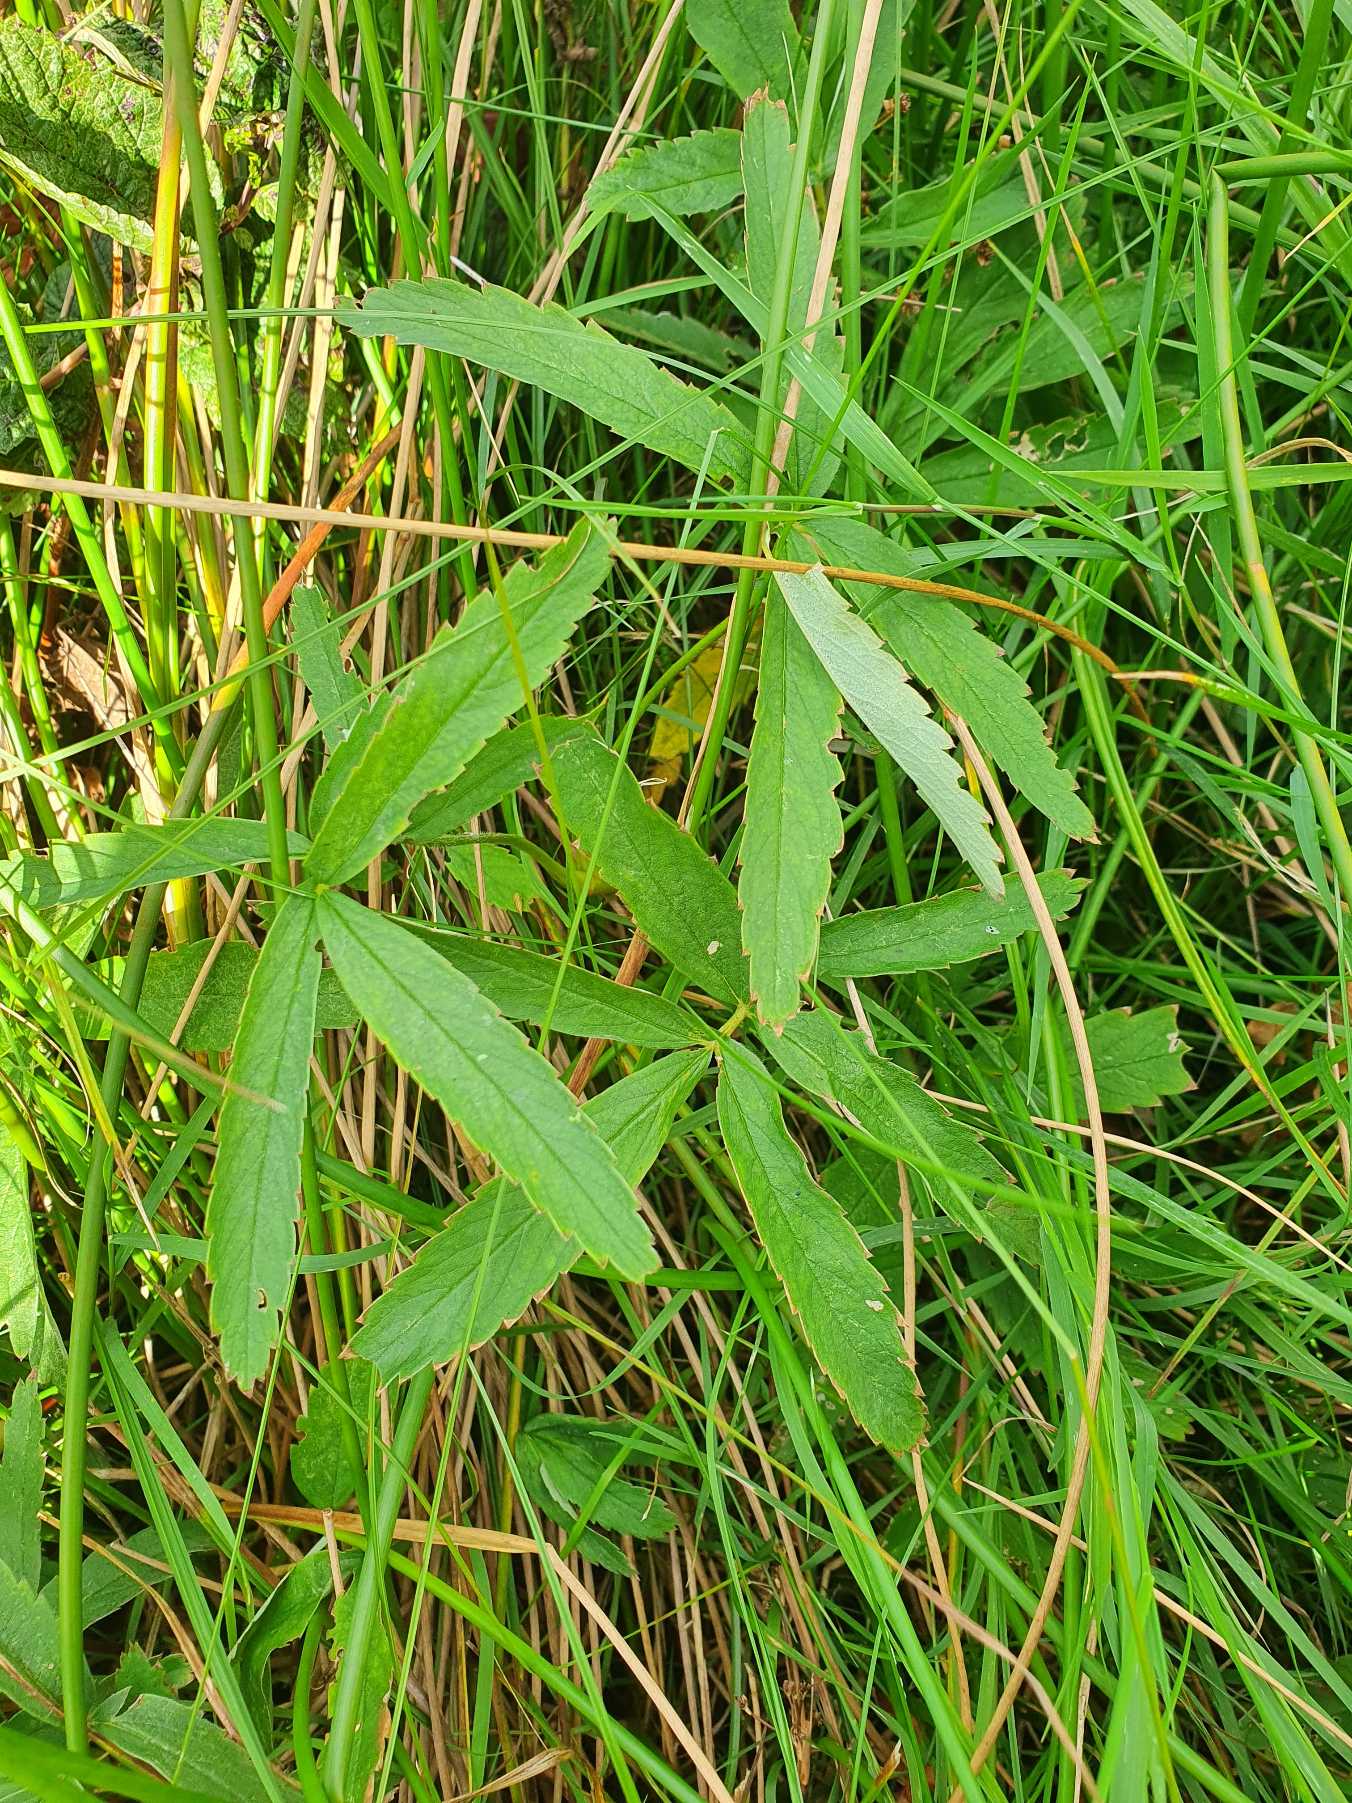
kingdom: Plantae
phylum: Tracheophyta
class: Magnoliopsida
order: Rosales
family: Rosaceae
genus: Comarum
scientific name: Comarum palustre
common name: Kragefod
